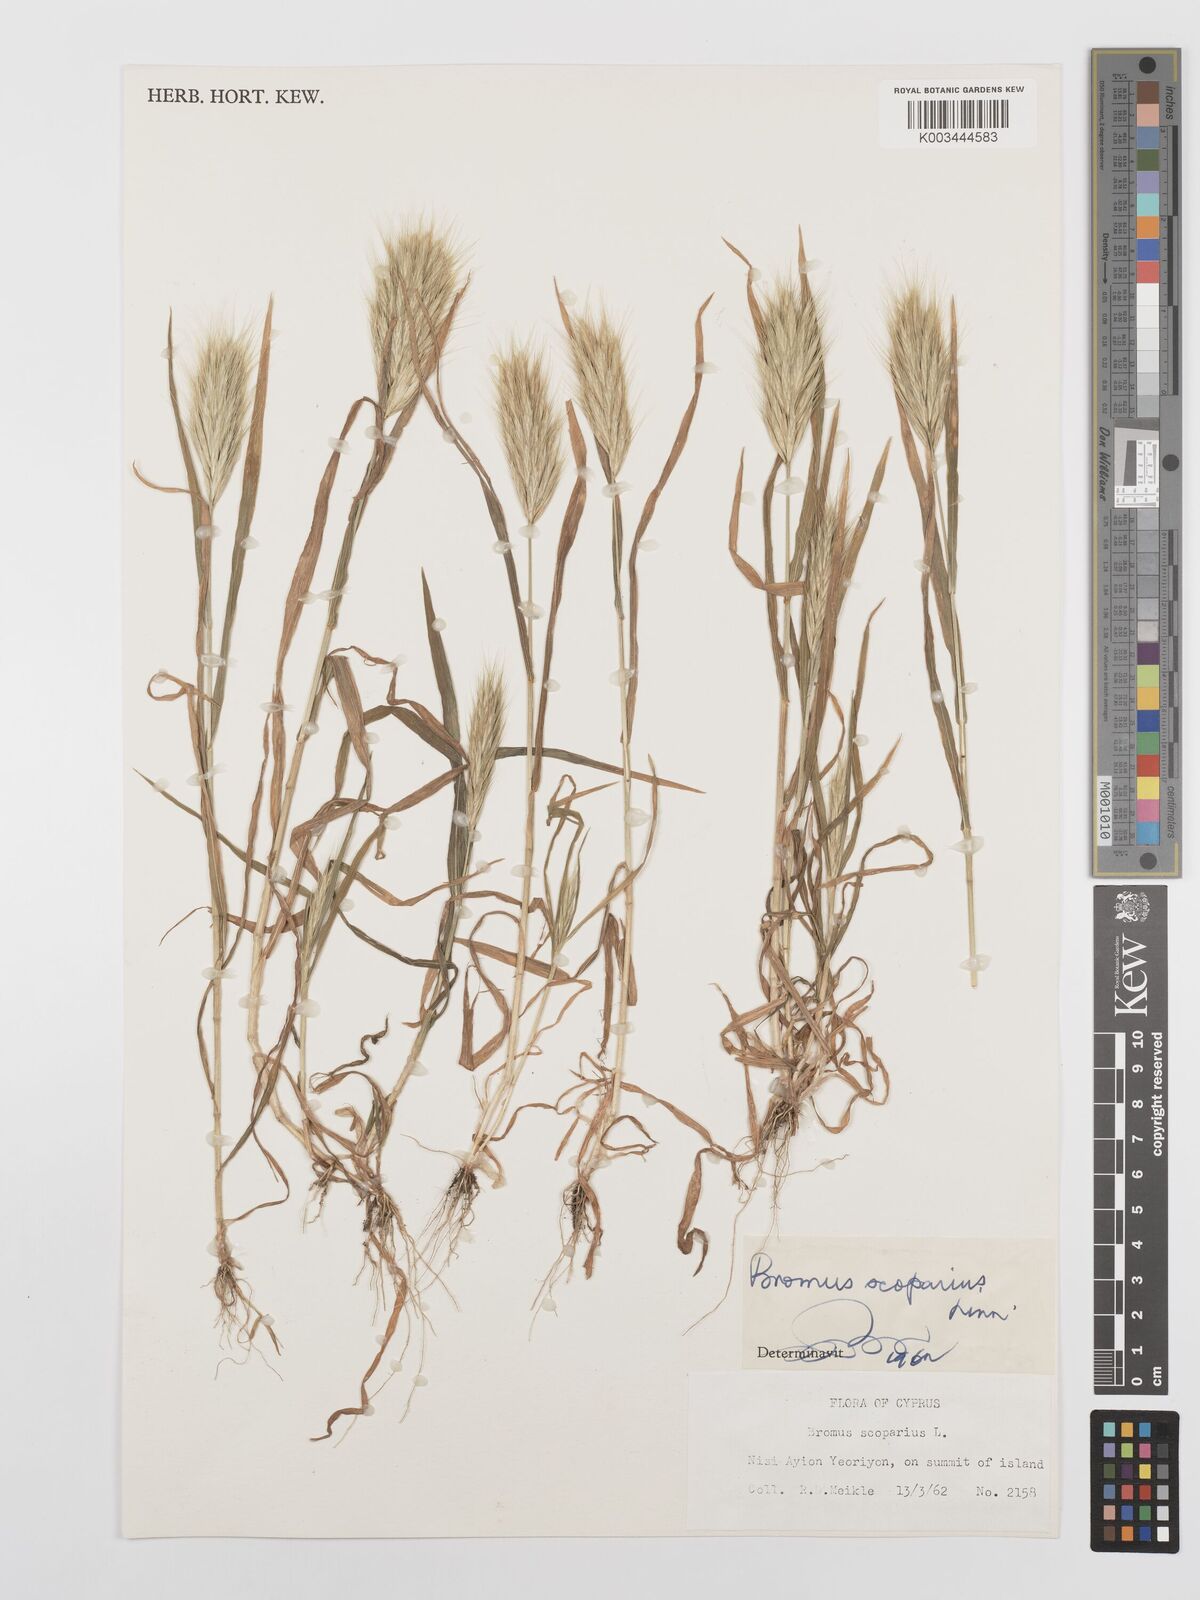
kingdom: Plantae
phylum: Tracheophyta
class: Liliopsida
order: Poales
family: Poaceae
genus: Bromus
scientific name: Bromus scoparius
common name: Broom brome
